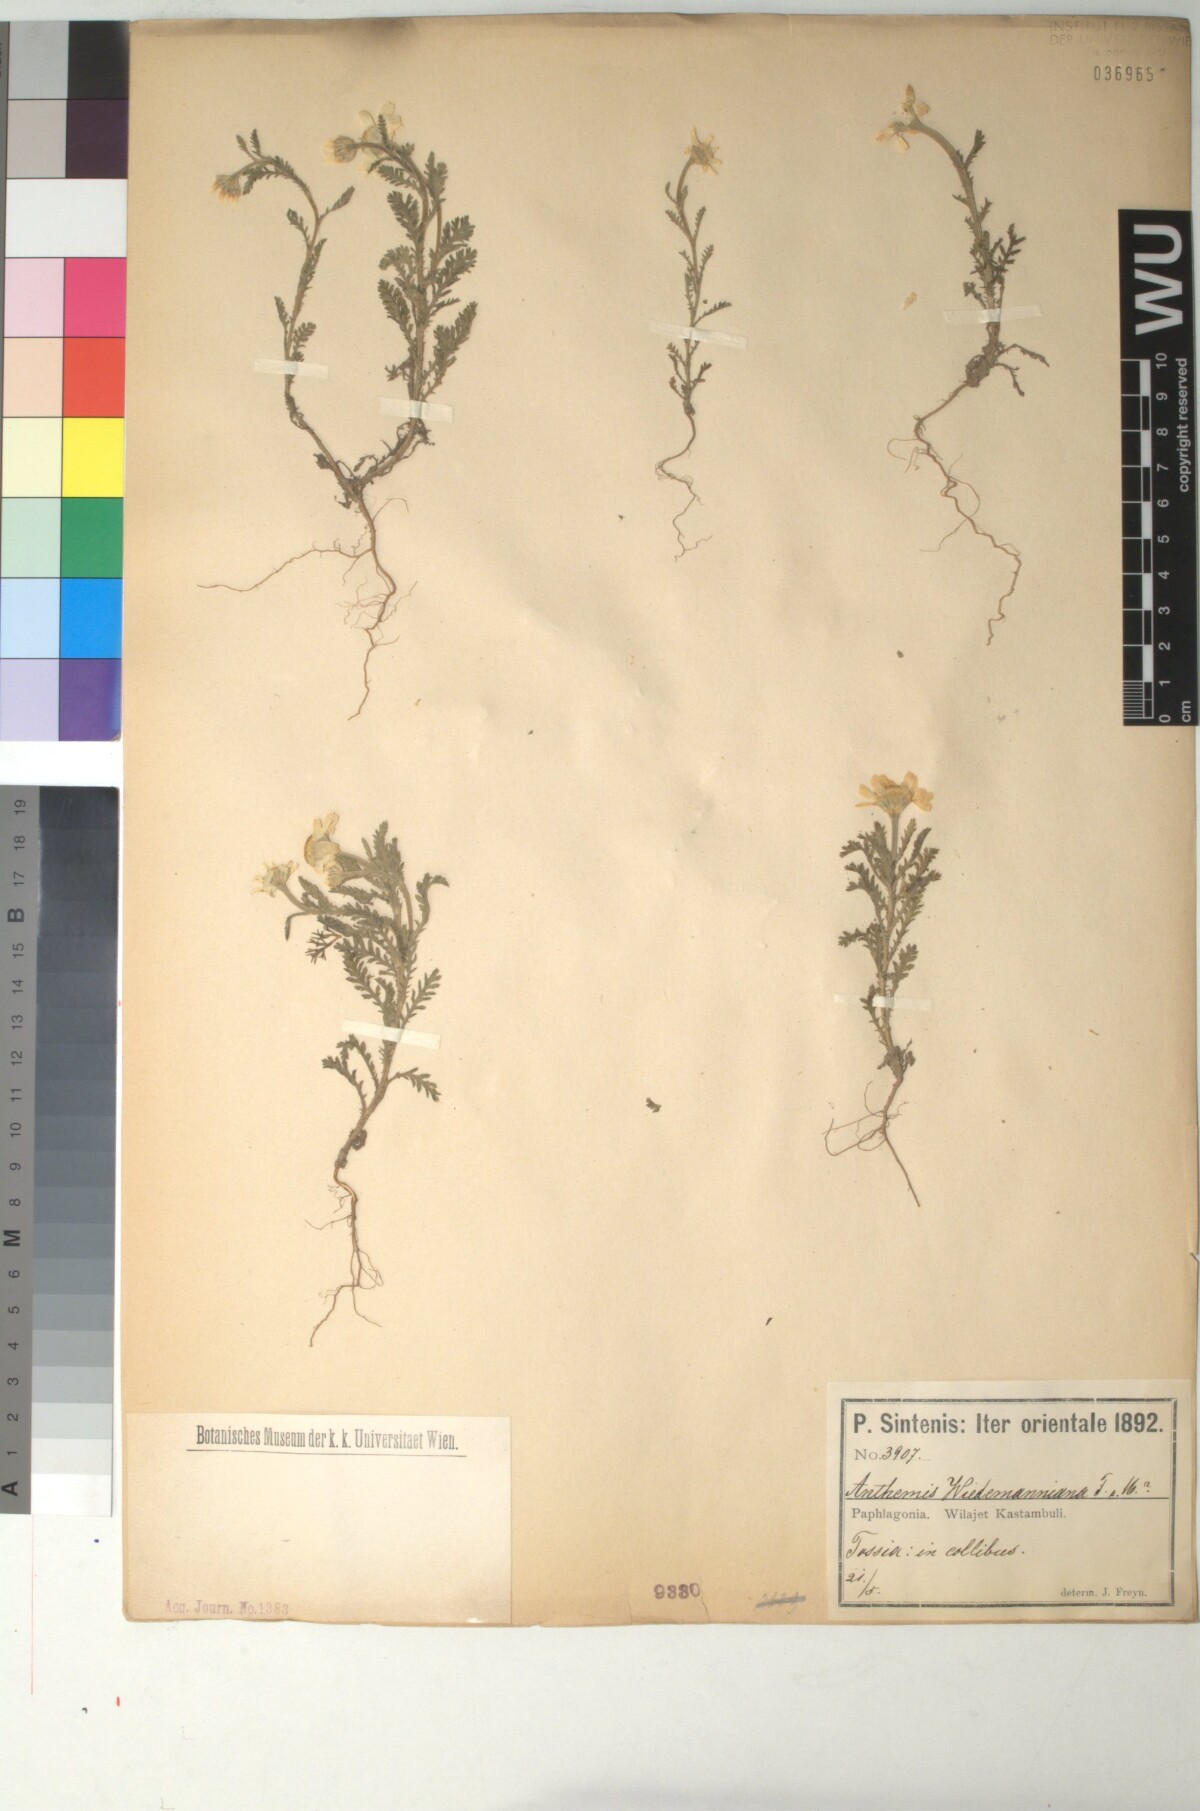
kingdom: Plantae
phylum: Tracheophyta
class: Magnoliopsida
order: Asterales
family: Asteraceae
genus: Cota
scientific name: Cota wiedemanniana
